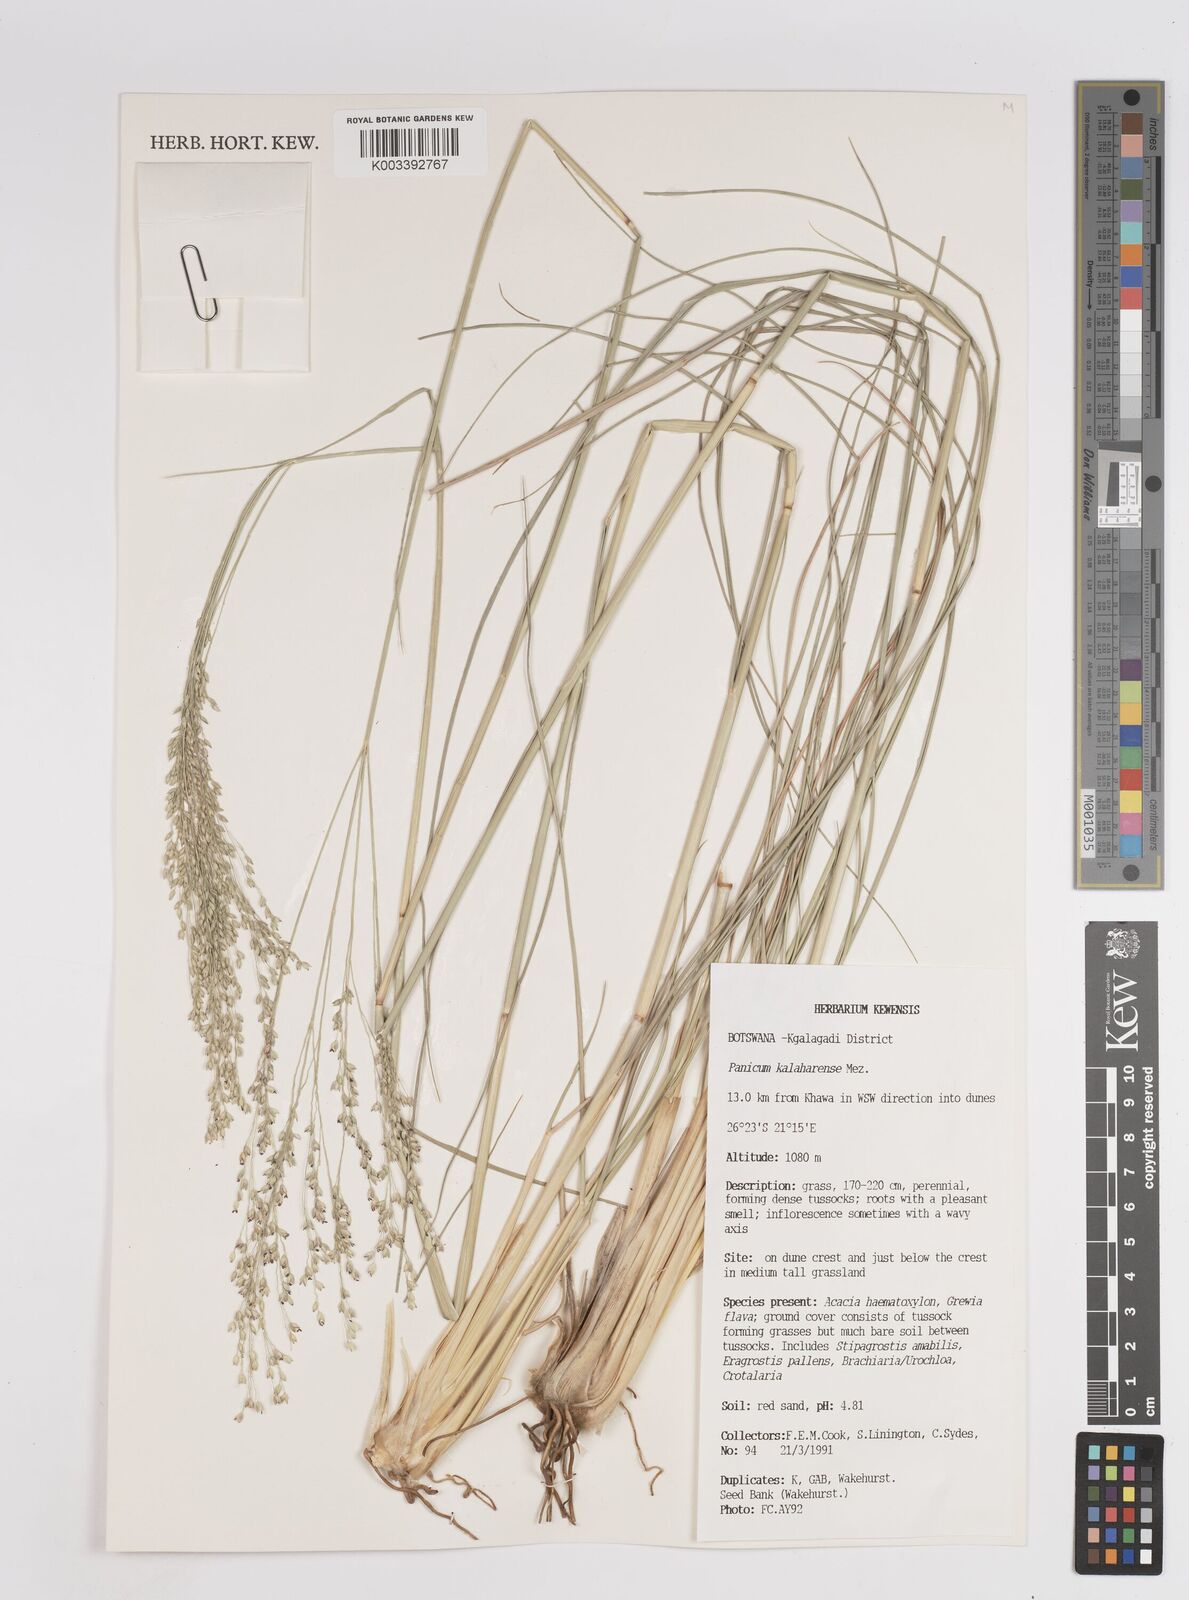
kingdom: Plantae
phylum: Tracheophyta
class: Liliopsida
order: Poales
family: Poaceae
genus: Panicum
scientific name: Panicum kalaharense
